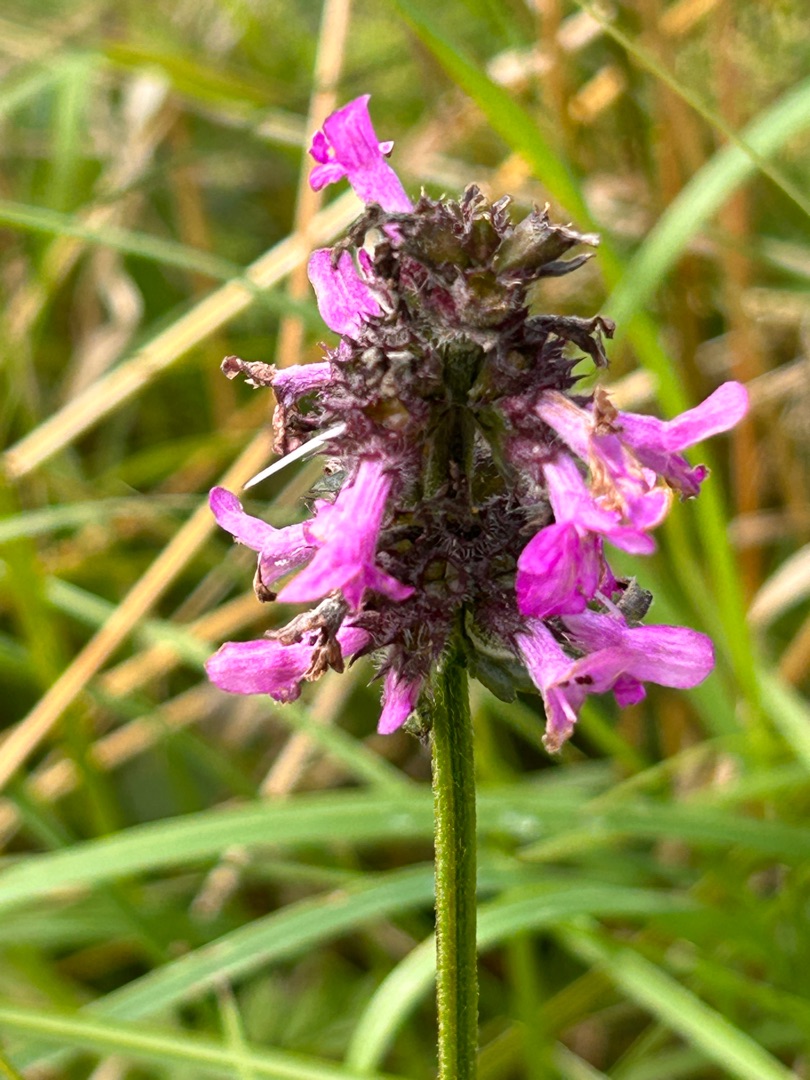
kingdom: Plantae
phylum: Tracheophyta
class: Magnoliopsida
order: Lamiales
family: Lamiaceae
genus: Betonica
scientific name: Betonica officinalis
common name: Betonie
